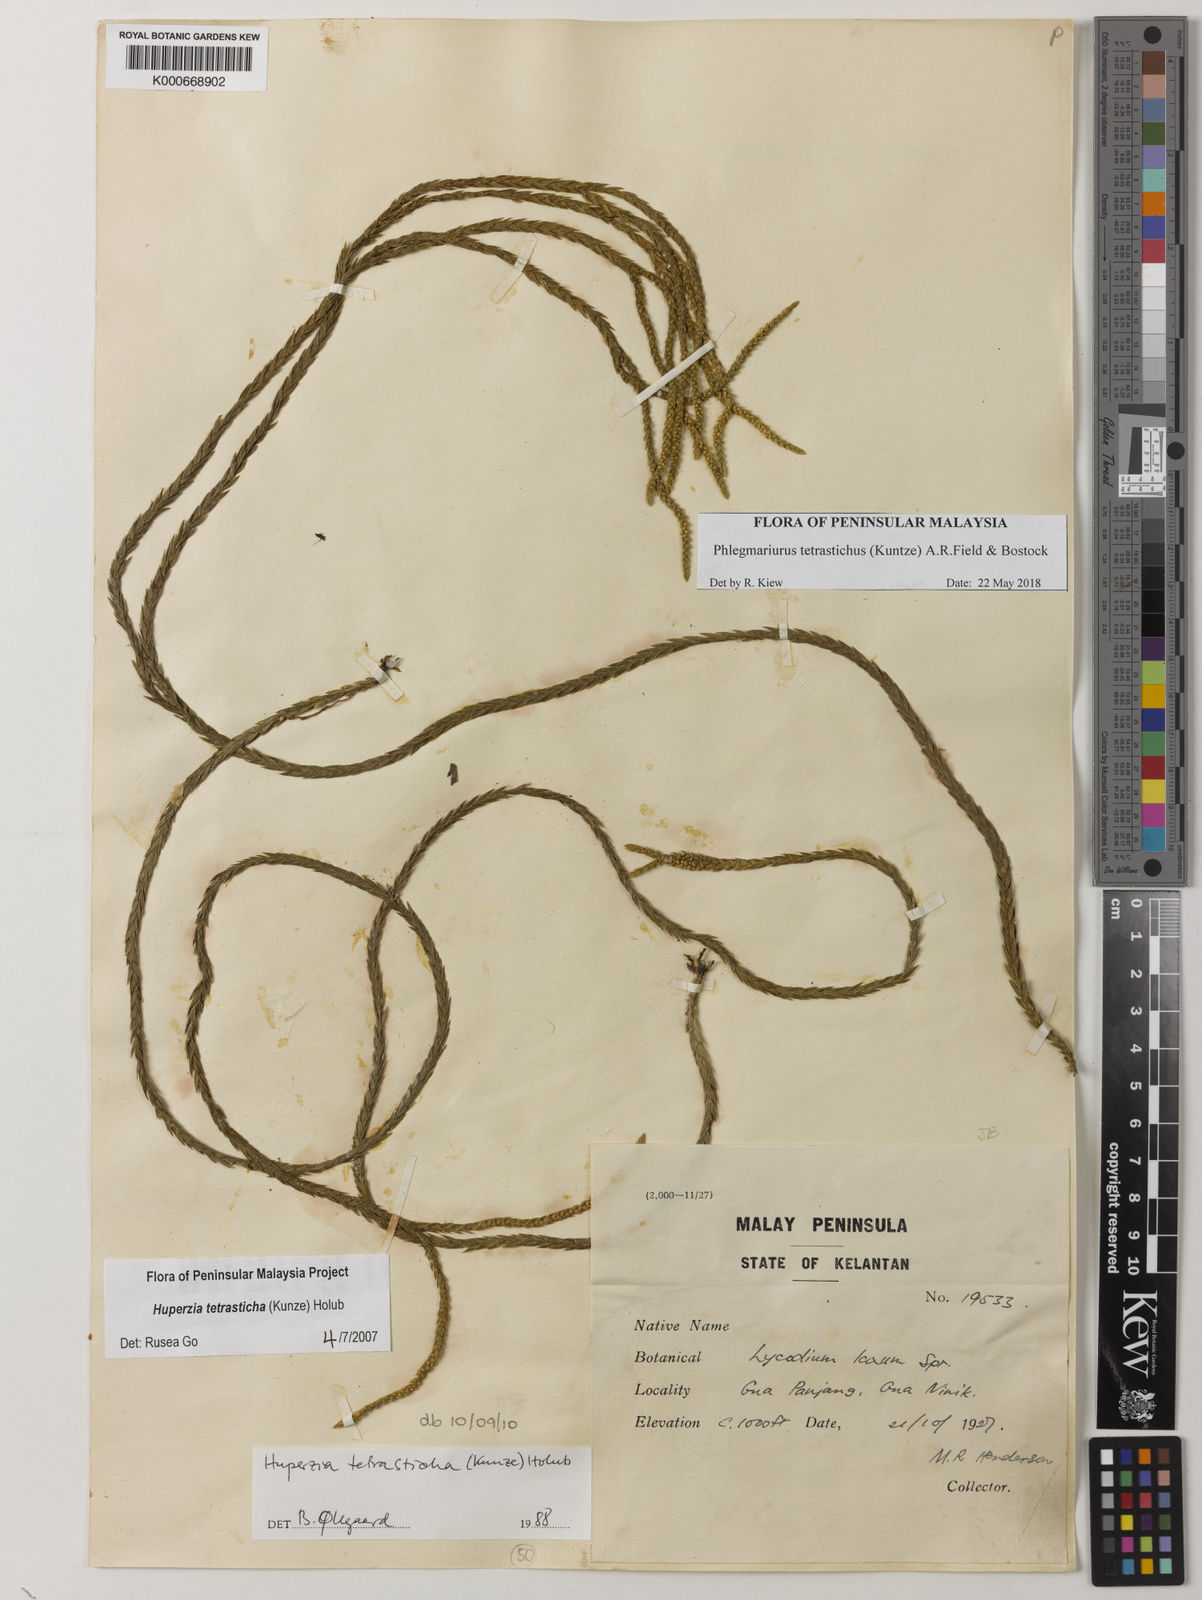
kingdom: Plantae
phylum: Tracheophyta
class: Lycopodiopsida
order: Lycopodiales
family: Lycopodiaceae
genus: Phlegmariurus
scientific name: Phlegmariurus tetrastichus
